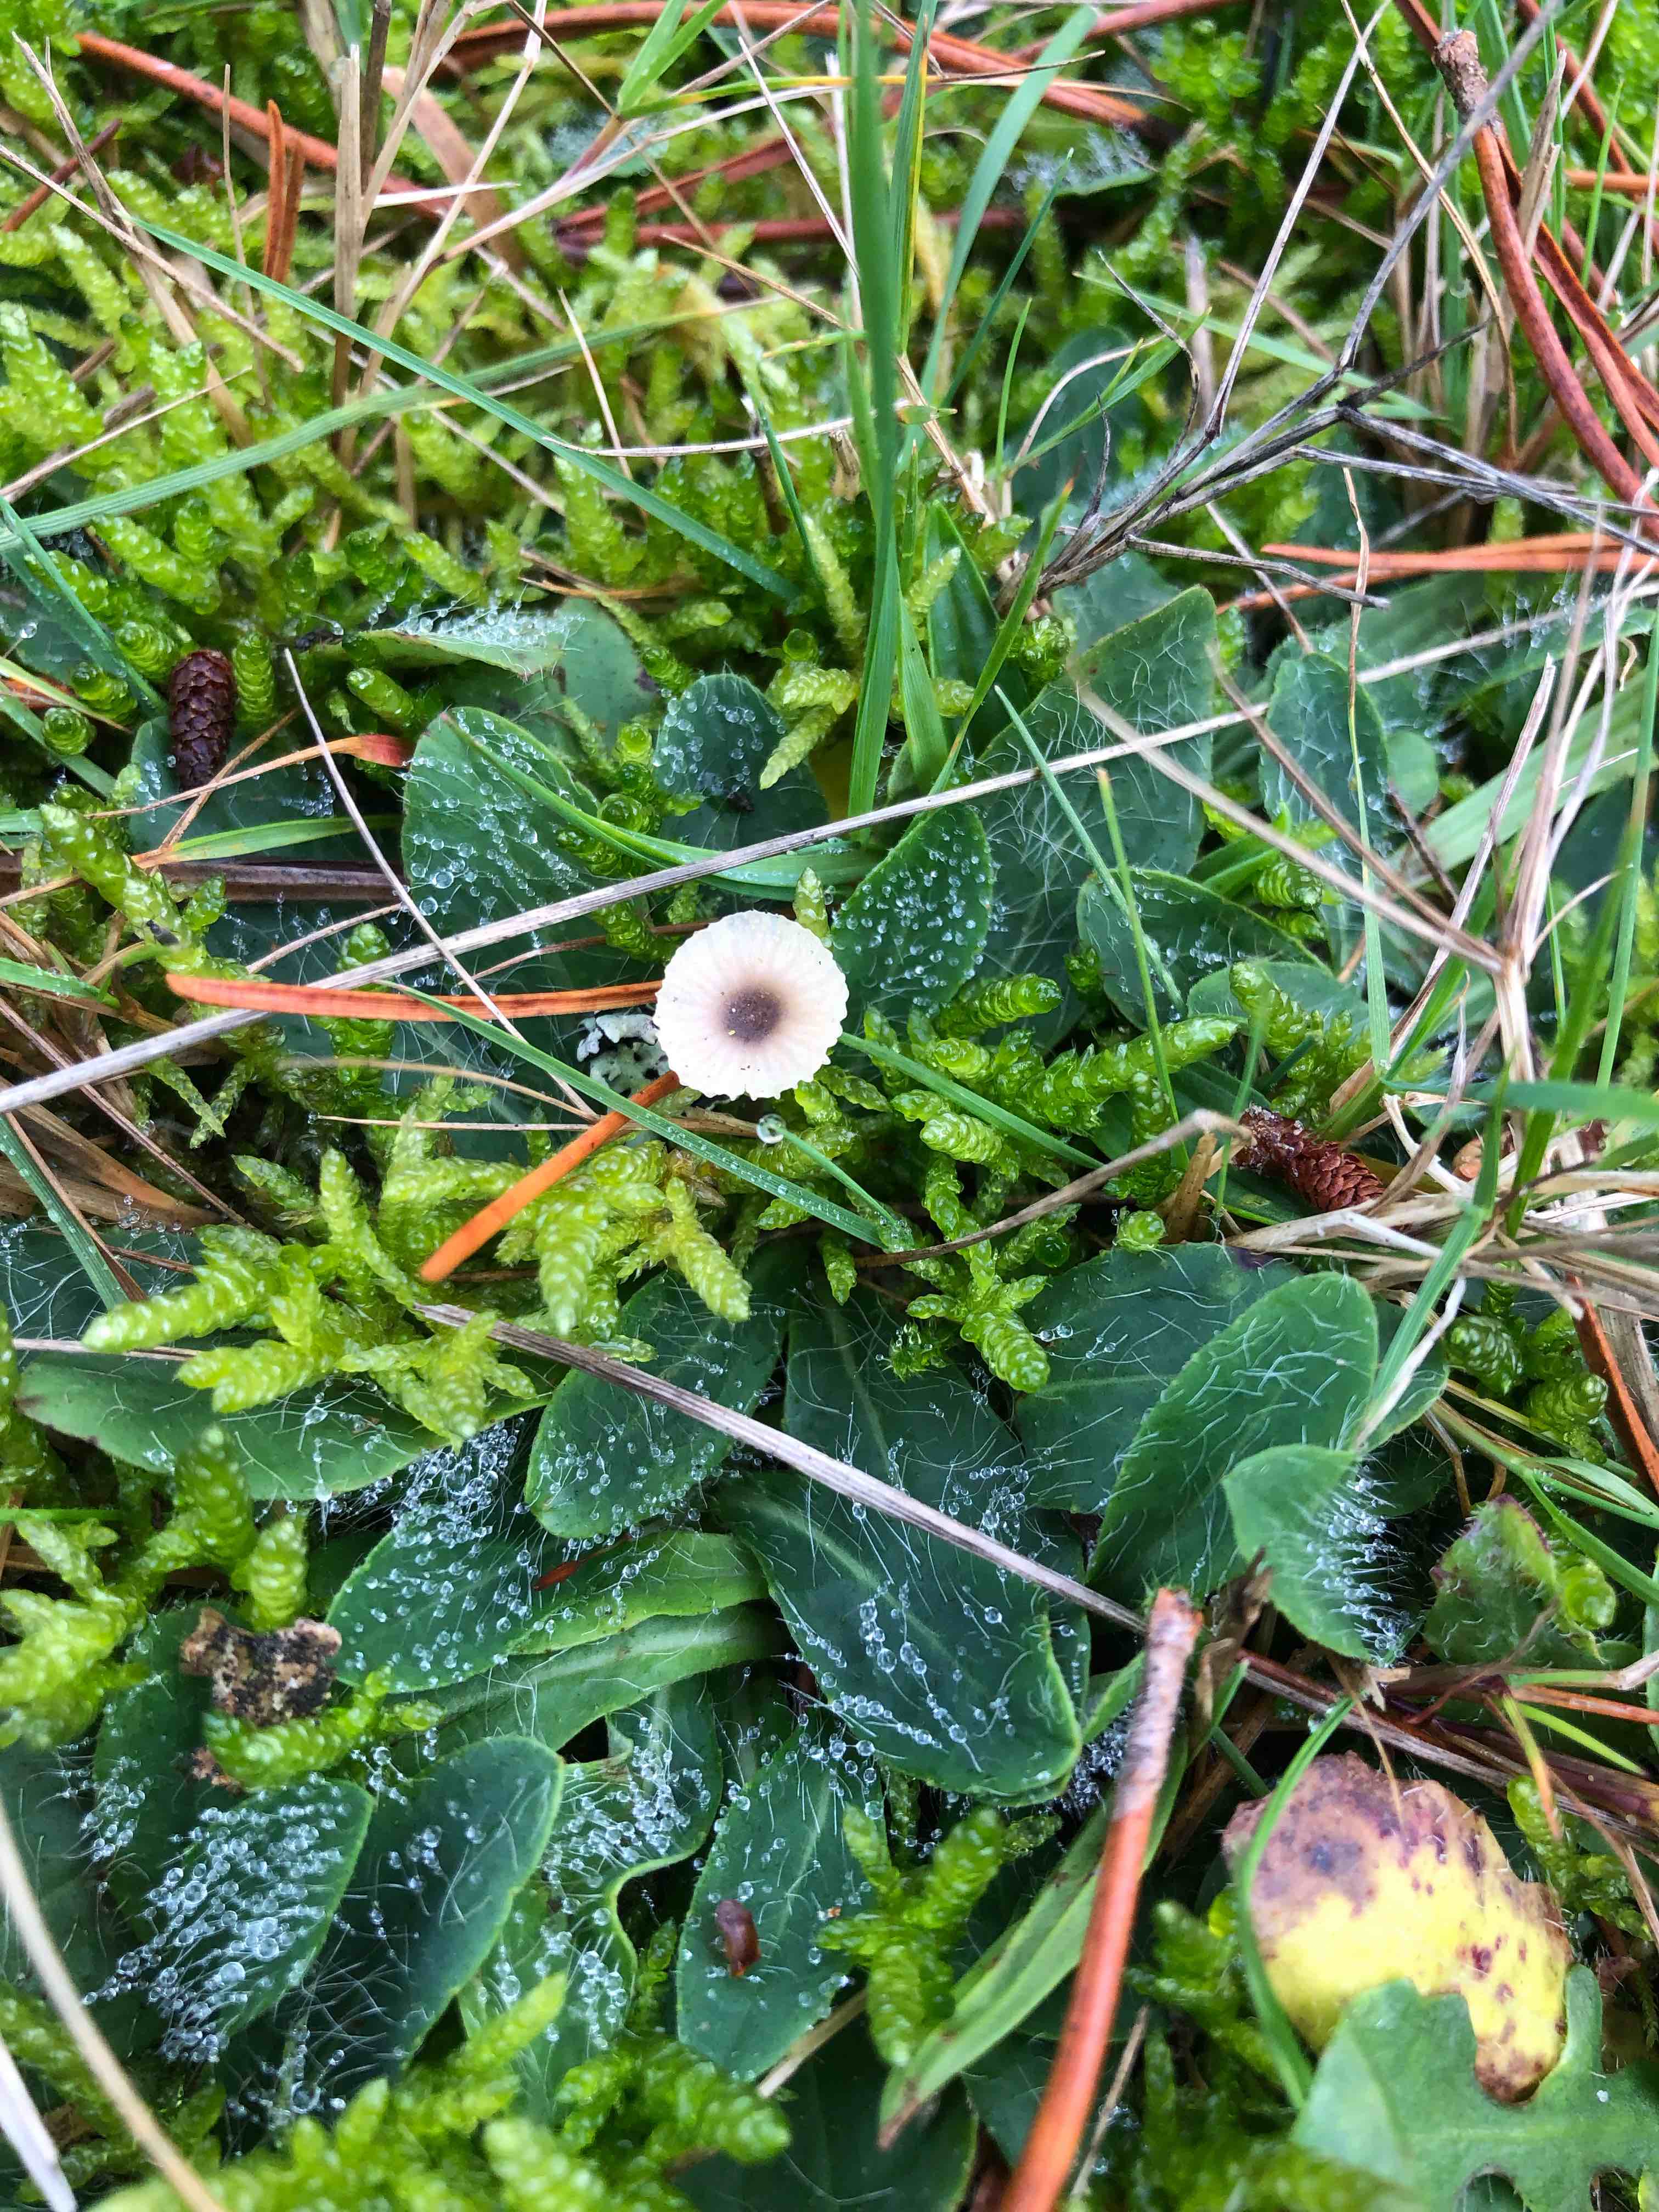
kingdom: Fungi
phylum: Basidiomycota
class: Agaricomycetes
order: Hymenochaetales
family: Rickenellaceae
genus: Rickenella
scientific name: Rickenella swartzii
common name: finstokket mosnavlehat
